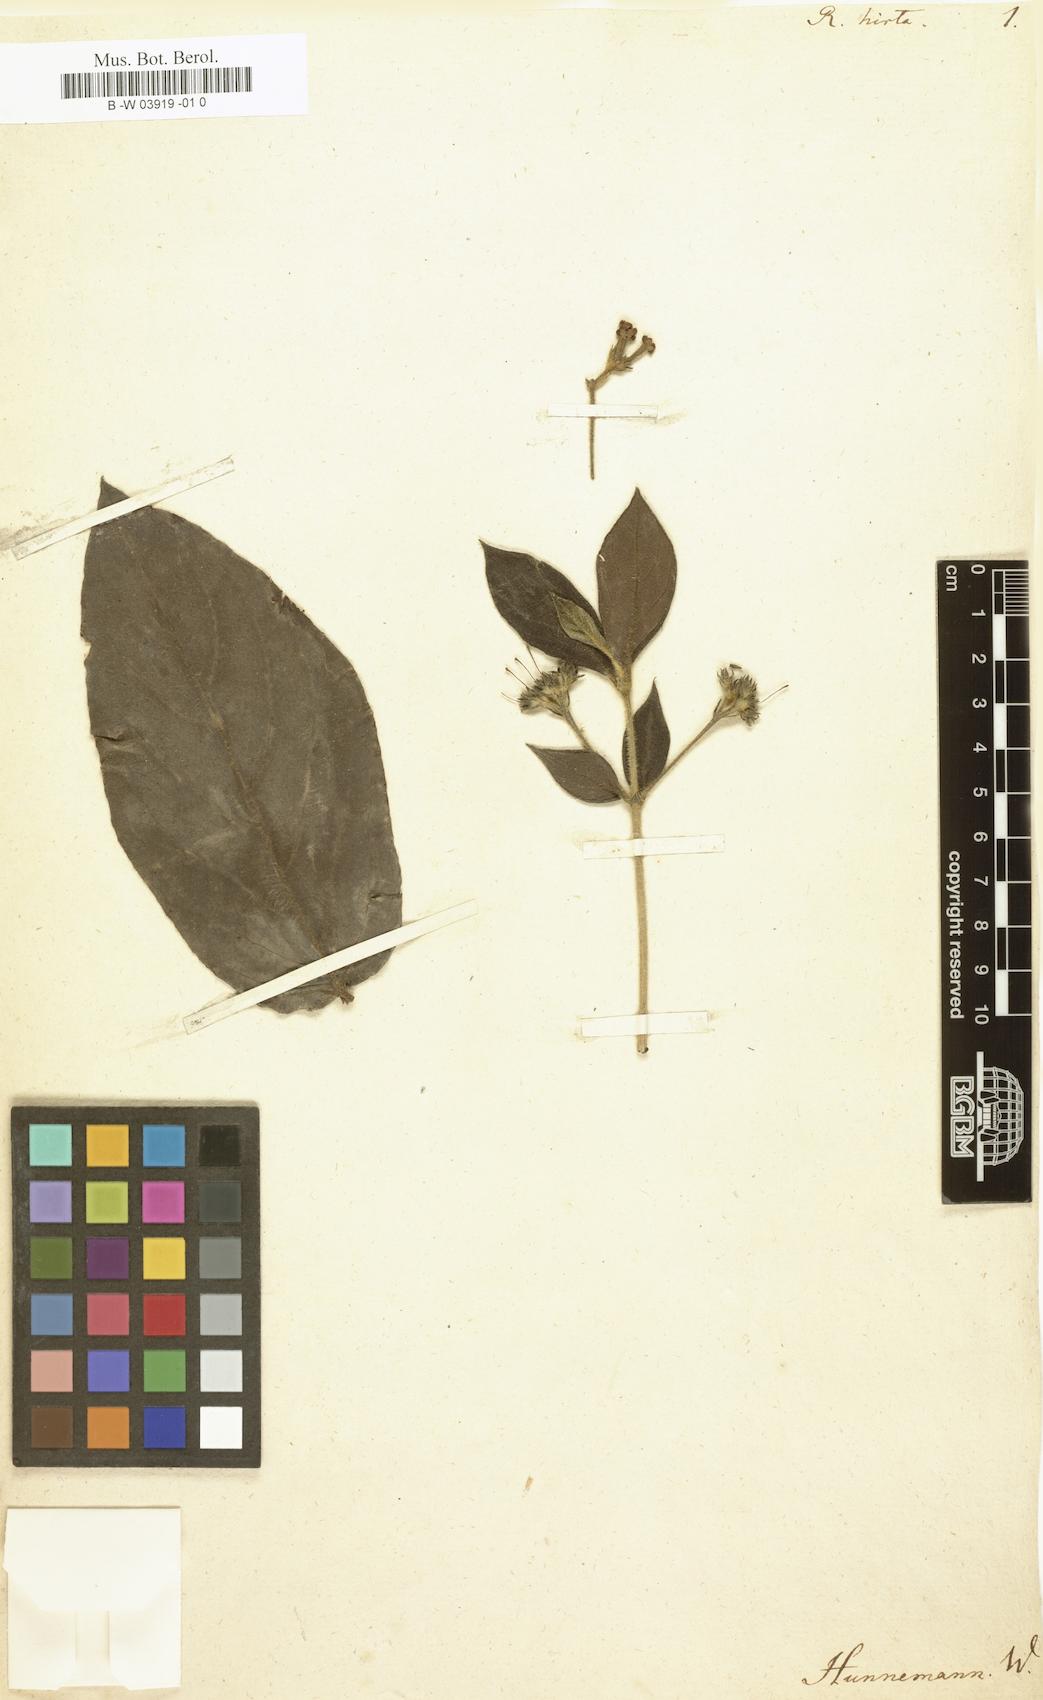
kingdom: Plantae
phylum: Tracheophyta
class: Magnoliopsida
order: Gentianales
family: Rubiaceae
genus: Rondeletia
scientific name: Rondeletia hirta
